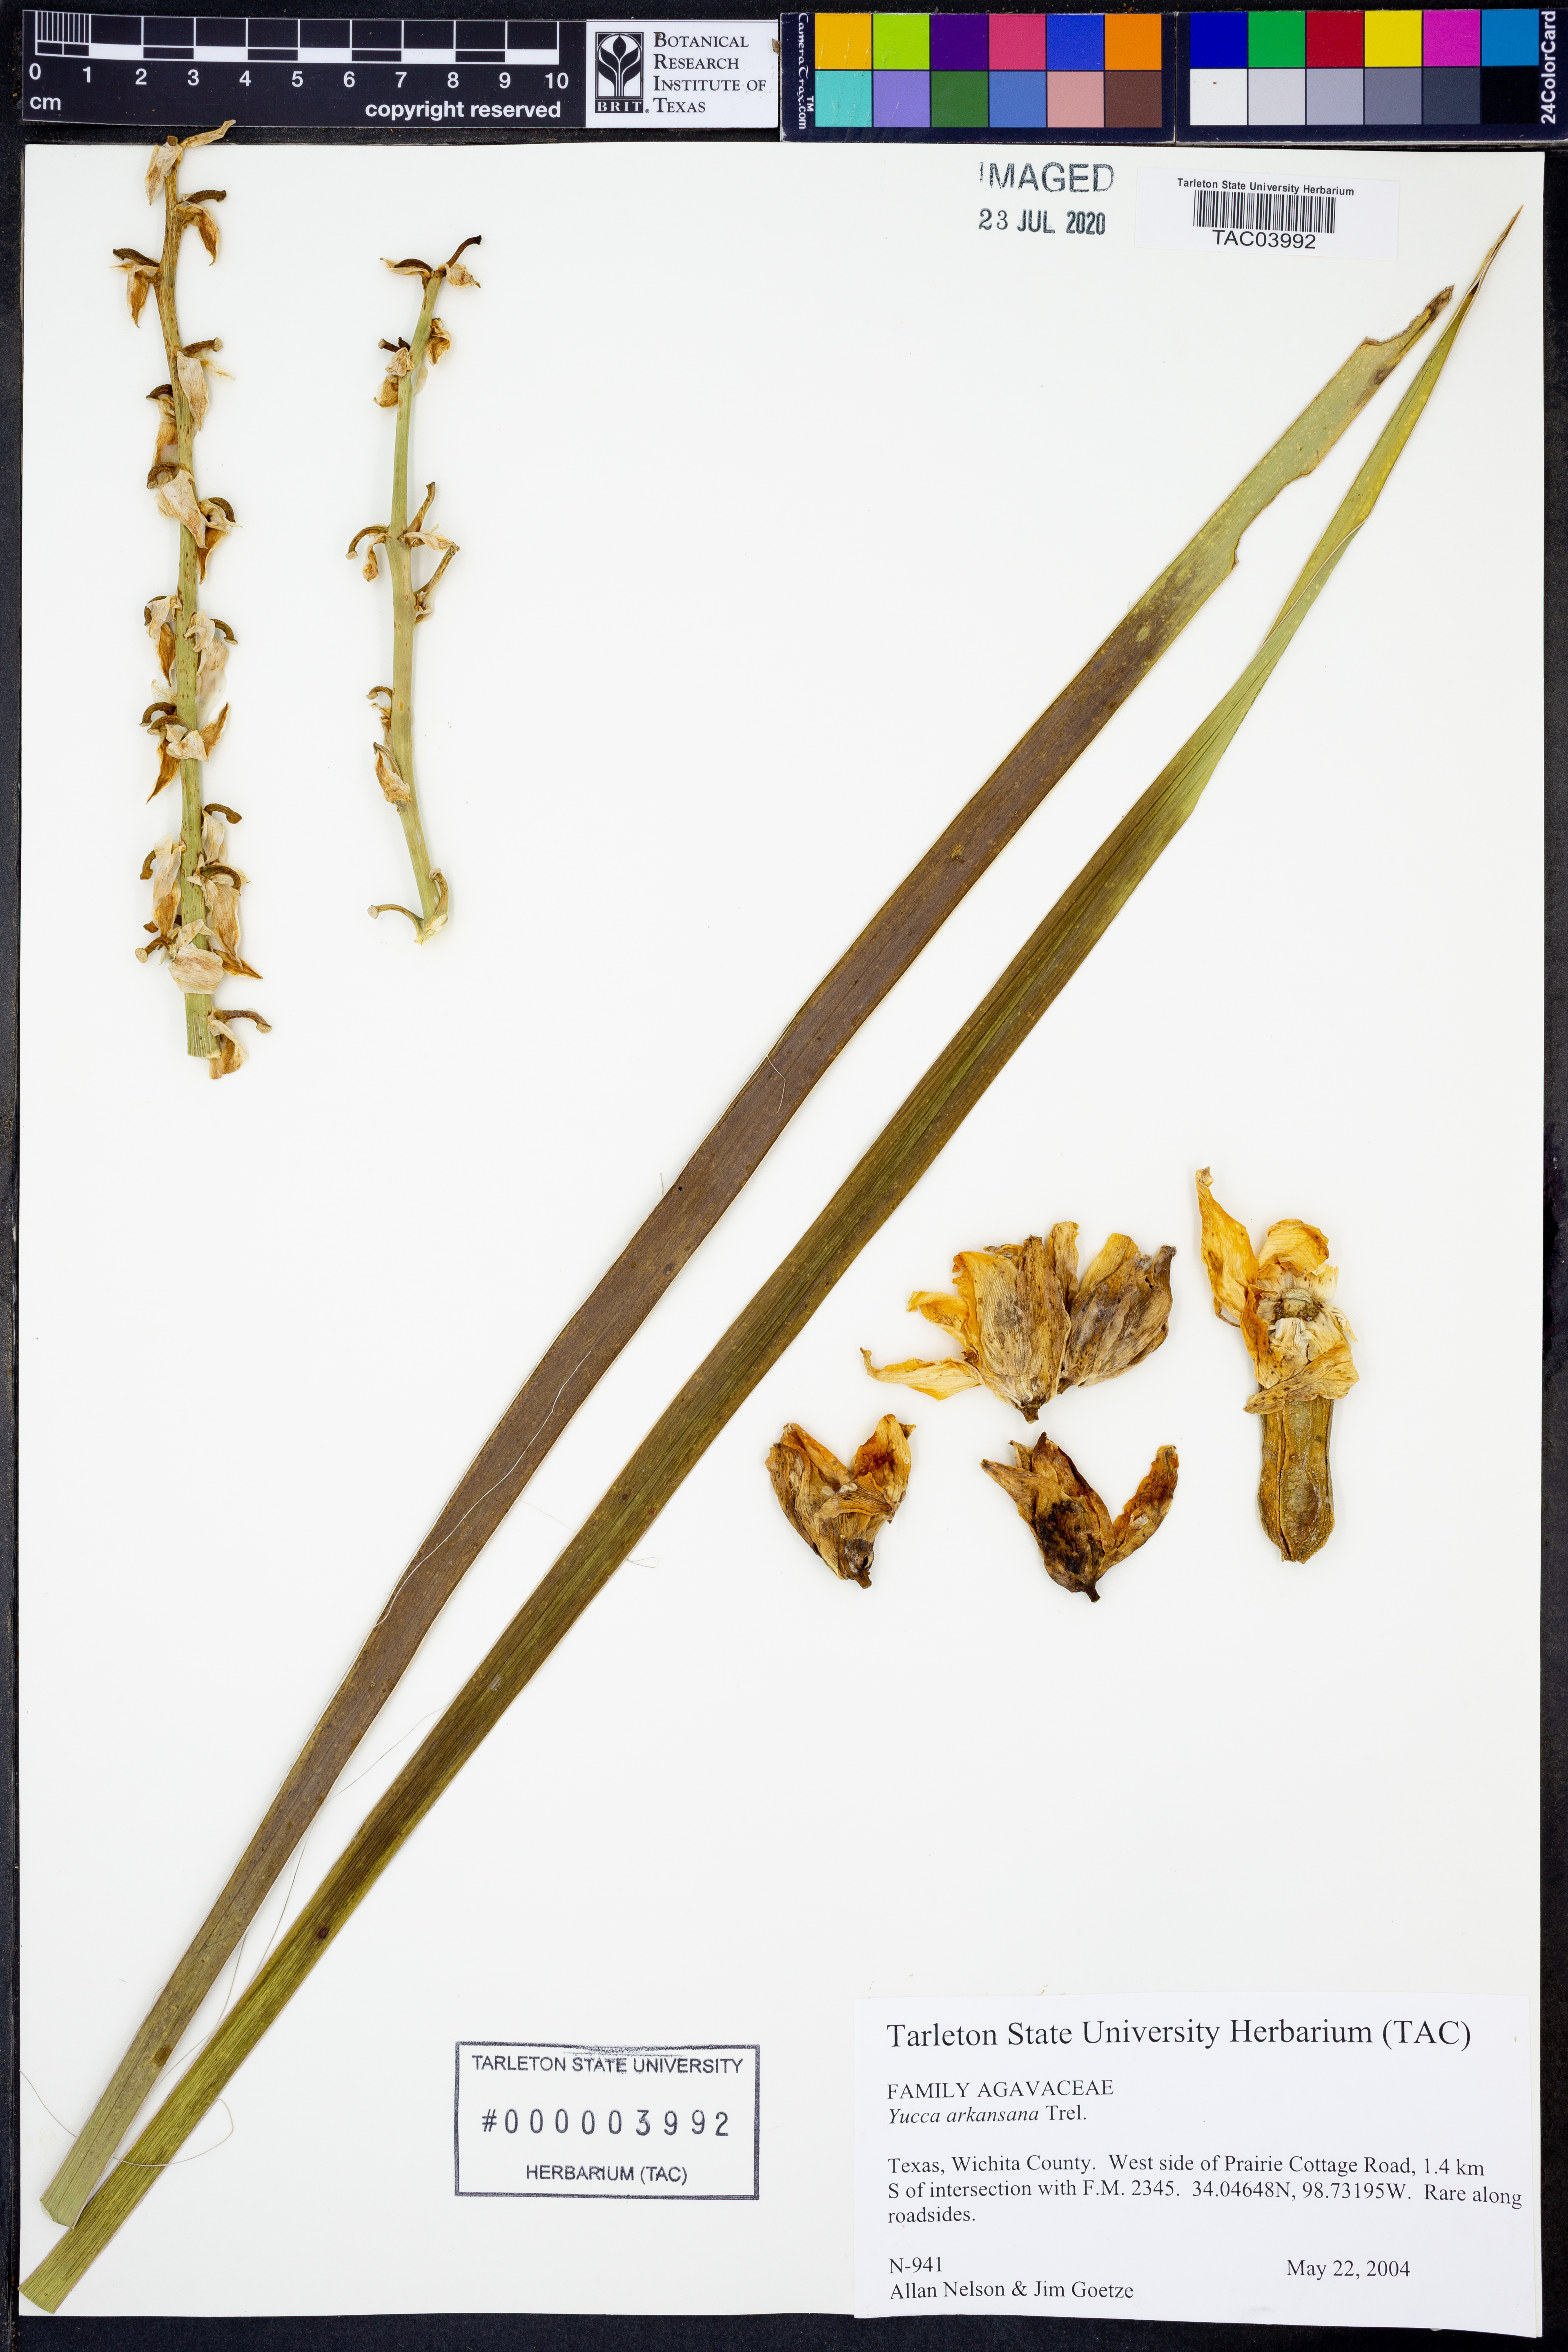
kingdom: Plantae
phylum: Tracheophyta
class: Liliopsida
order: Asparagales
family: Asparagaceae
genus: Yucca
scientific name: Yucca arkansana
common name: Arkansas yucca
